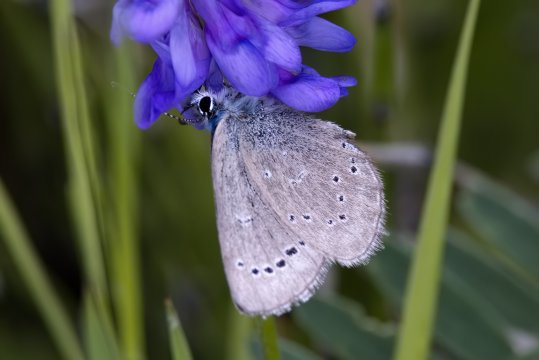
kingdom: Animalia
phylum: Arthropoda
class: Insecta
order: Lepidoptera
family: Lycaenidae
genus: Glaucopsyche
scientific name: Glaucopsyche lygdamus
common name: Silvery Blue
